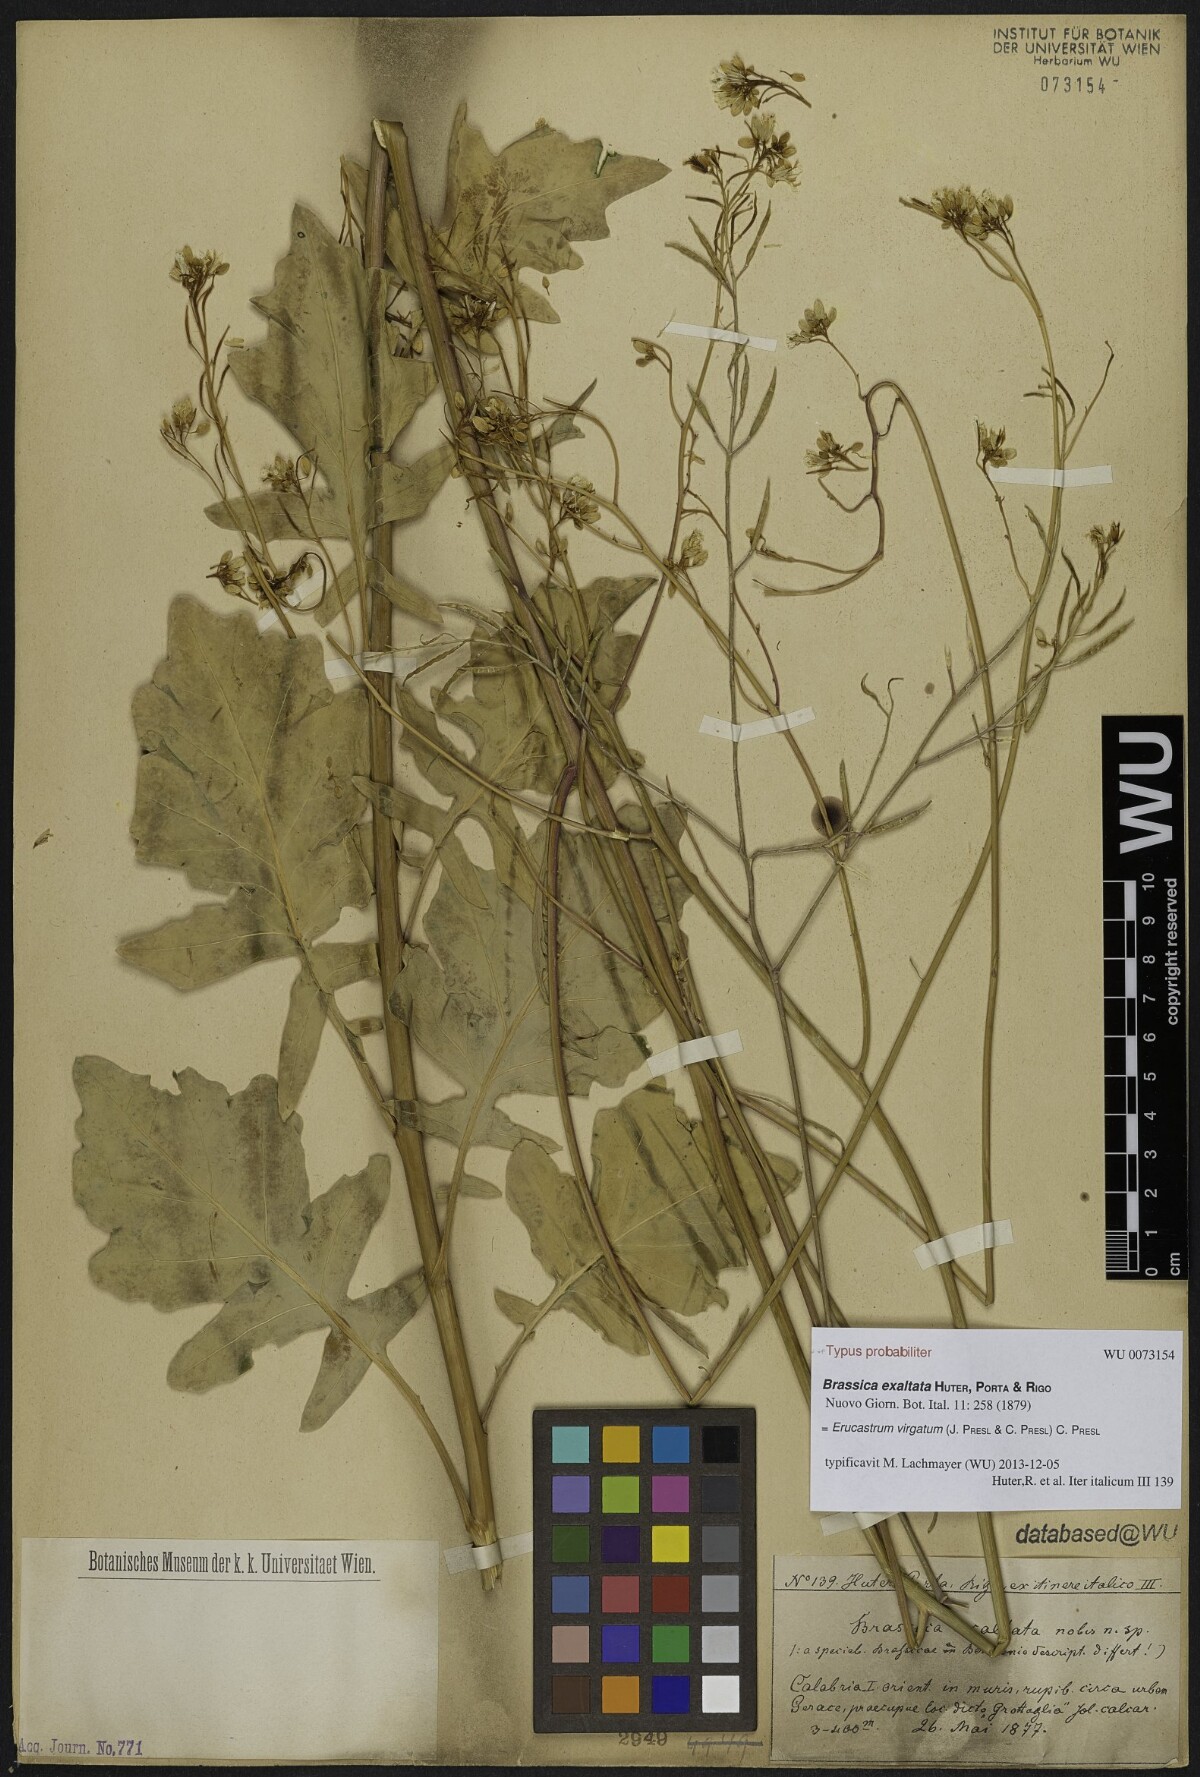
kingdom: Plantae
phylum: Tracheophyta
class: Magnoliopsida
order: Brassicales
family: Brassicaceae
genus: Erucastrum
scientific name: Erucastrum virgatum
